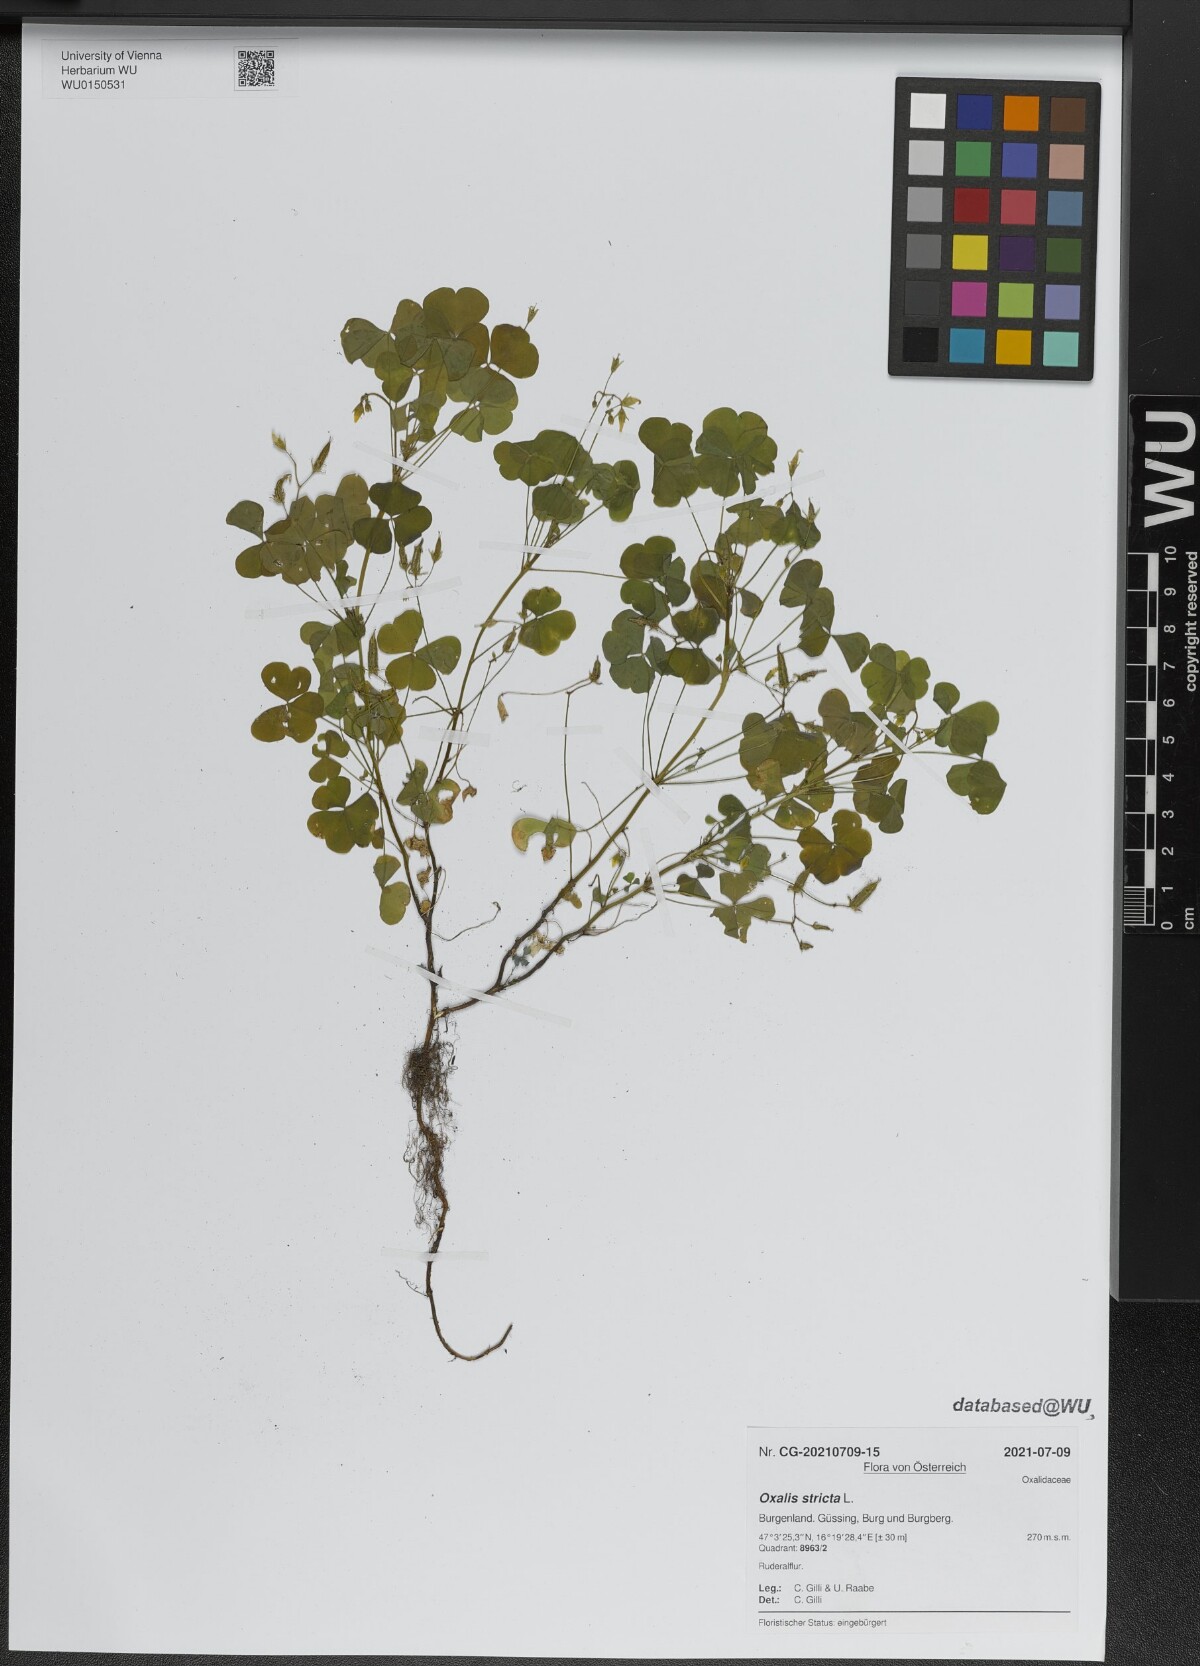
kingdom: Plantae
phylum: Tracheophyta
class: Magnoliopsida
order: Oxalidales
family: Oxalidaceae
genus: Oxalis
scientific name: Oxalis stricta
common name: Upright yellow-sorrel
